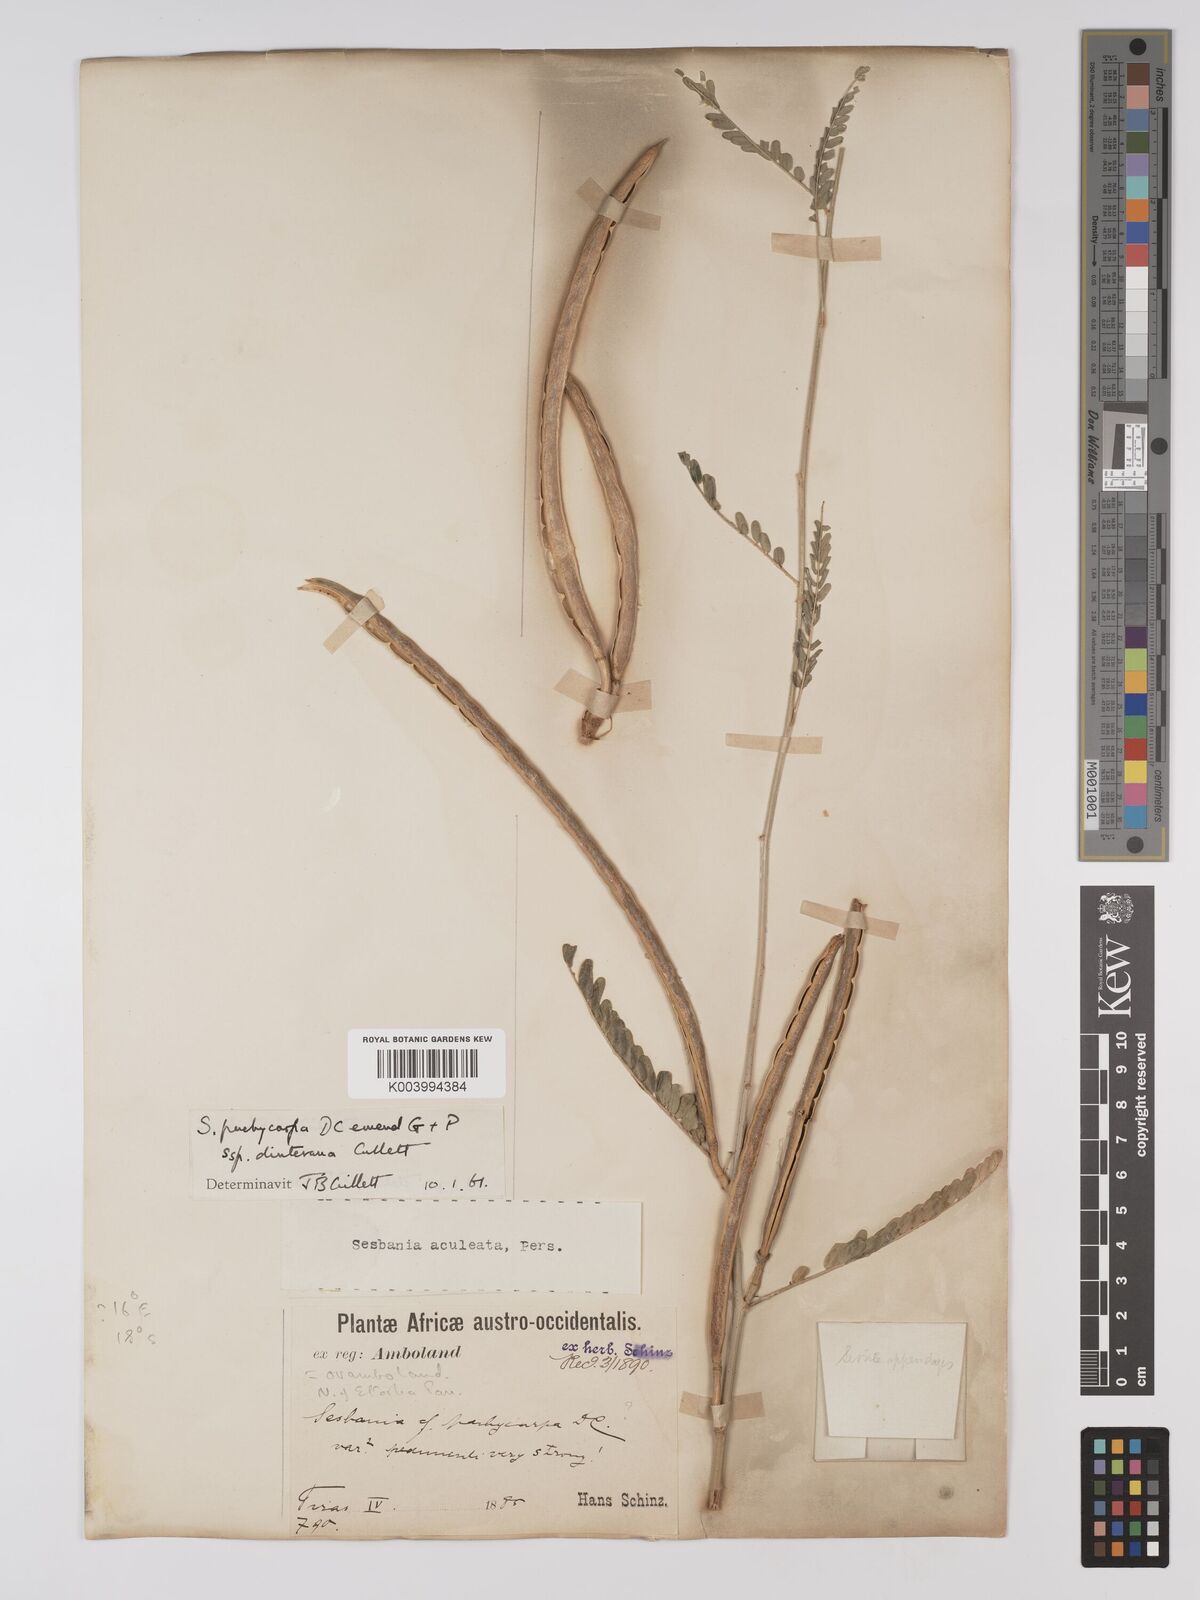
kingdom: Plantae
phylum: Tracheophyta
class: Magnoliopsida
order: Fabales
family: Fabaceae
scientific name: Fabaceae
